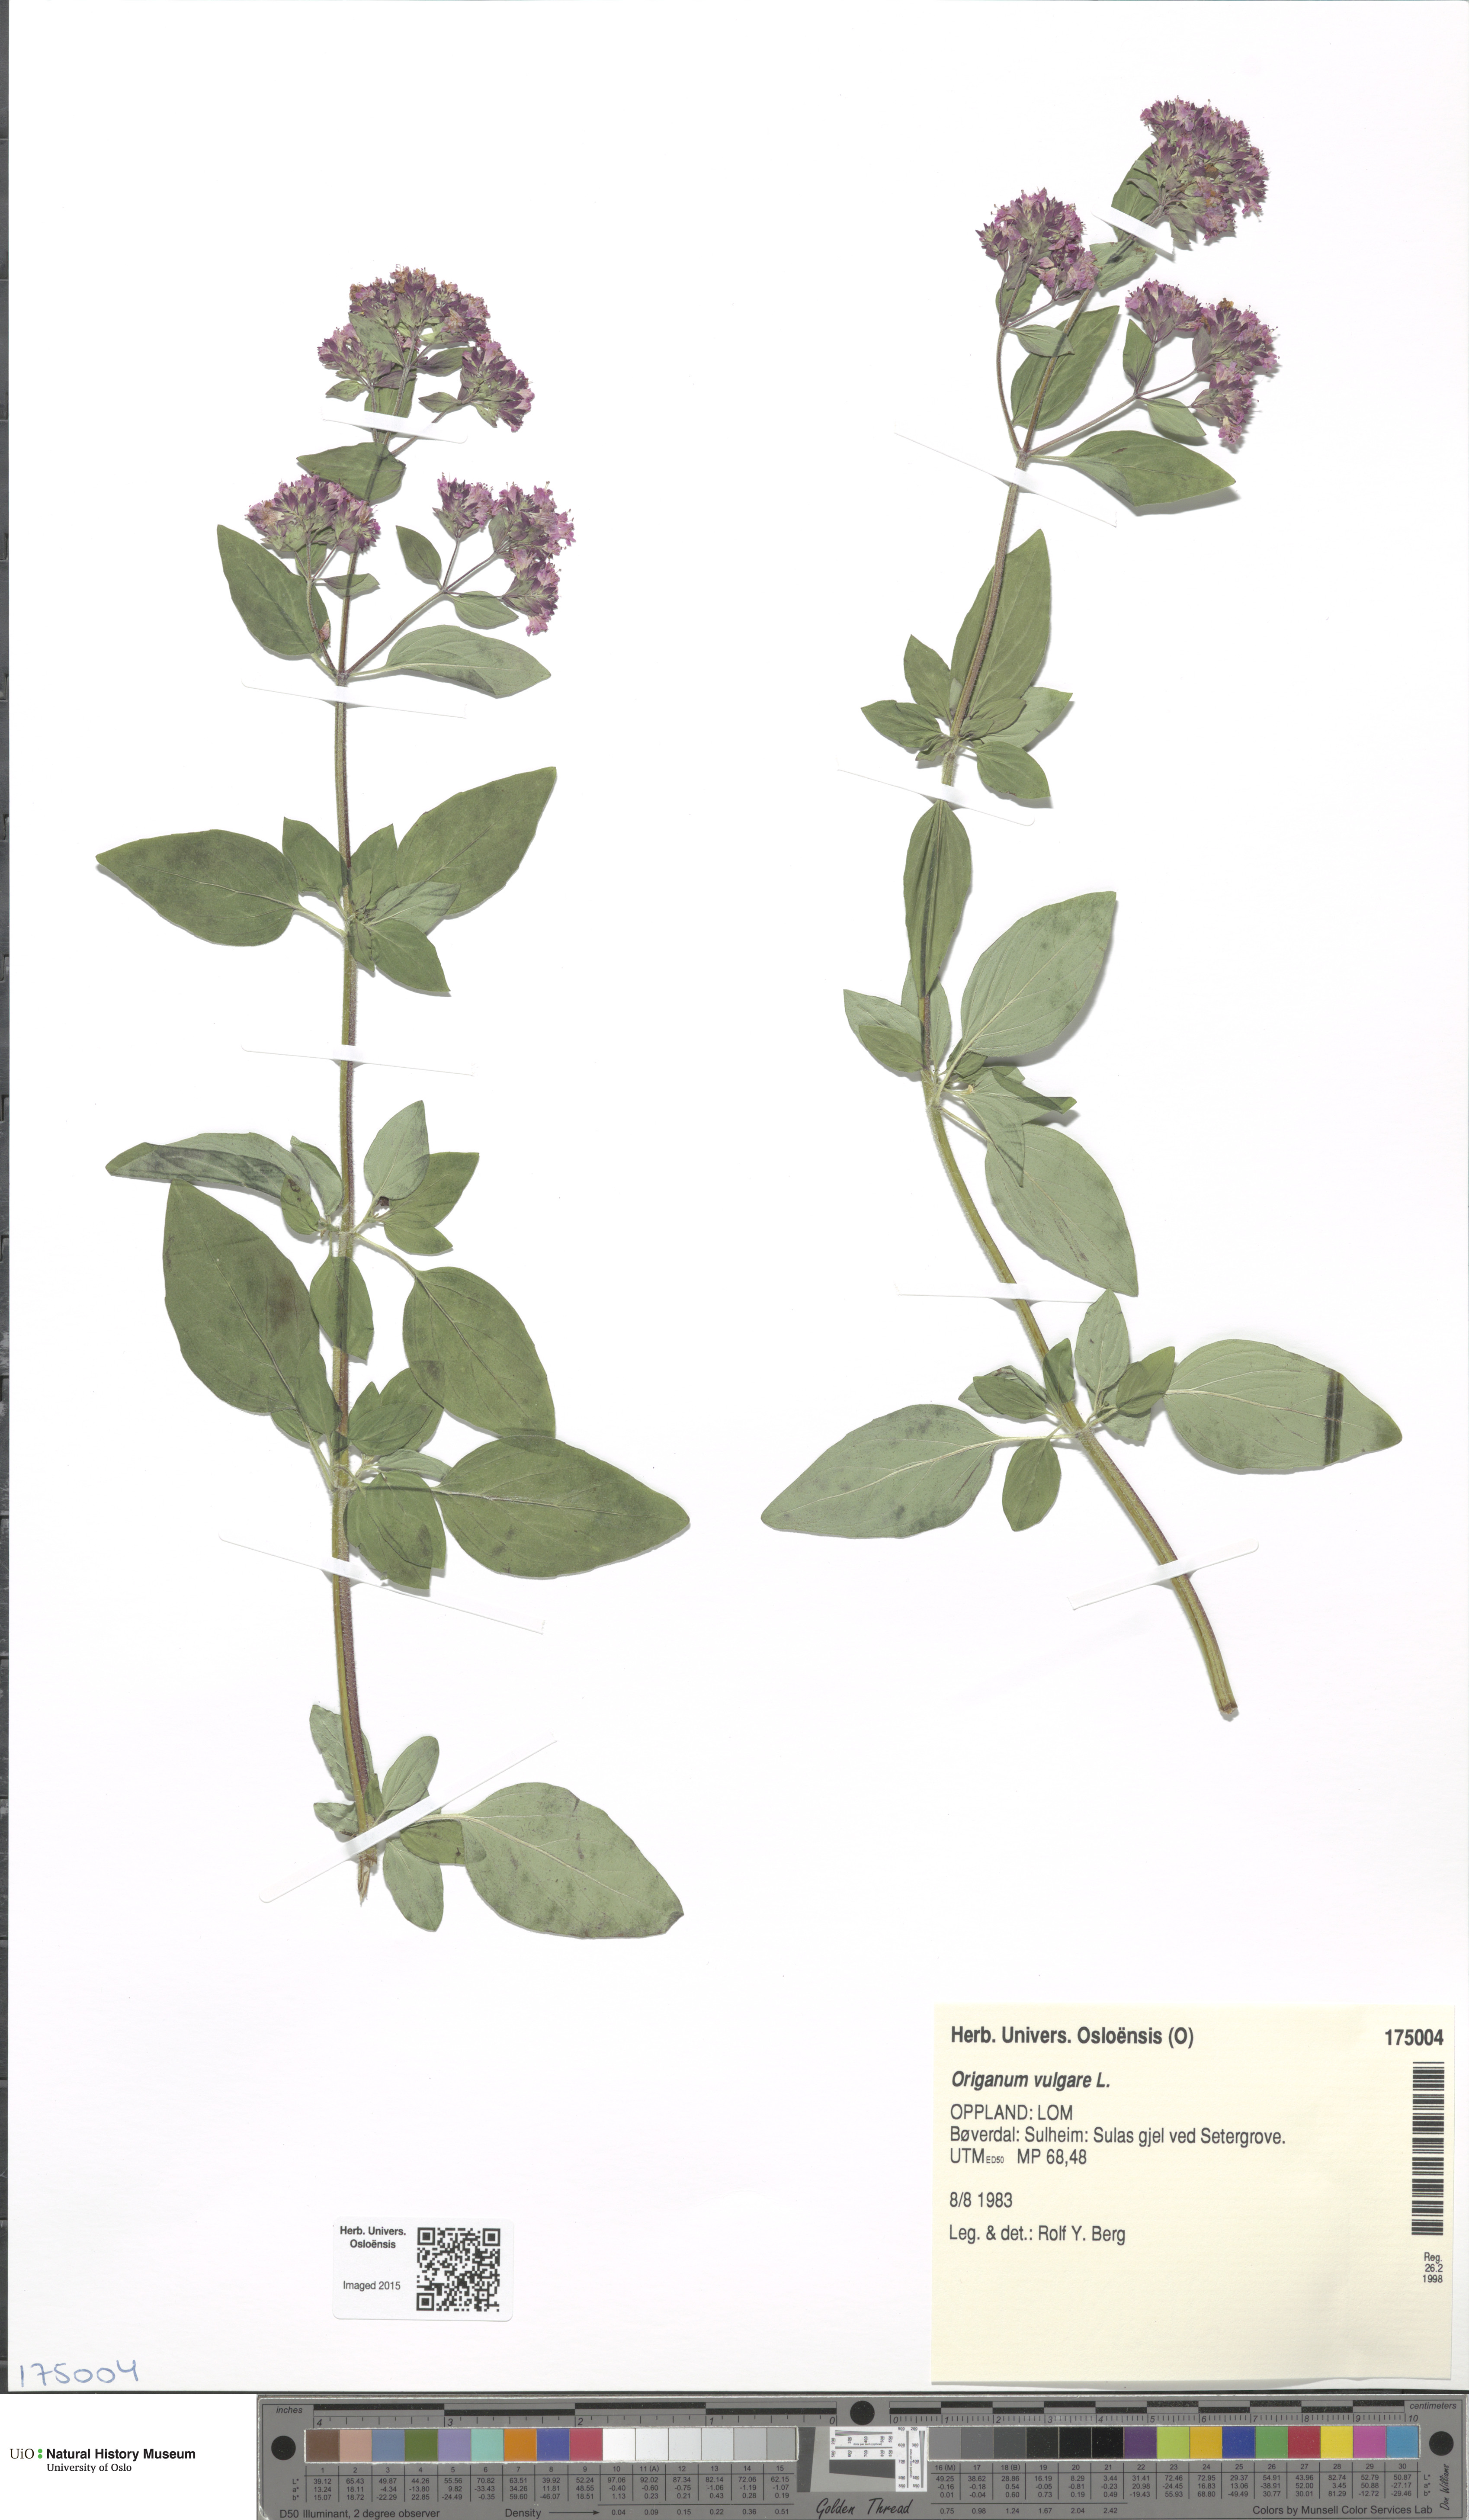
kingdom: Plantae
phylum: Tracheophyta
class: Magnoliopsida
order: Lamiales
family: Lamiaceae
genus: Origanum
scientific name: Origanum vulgare
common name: Wild marjoram
